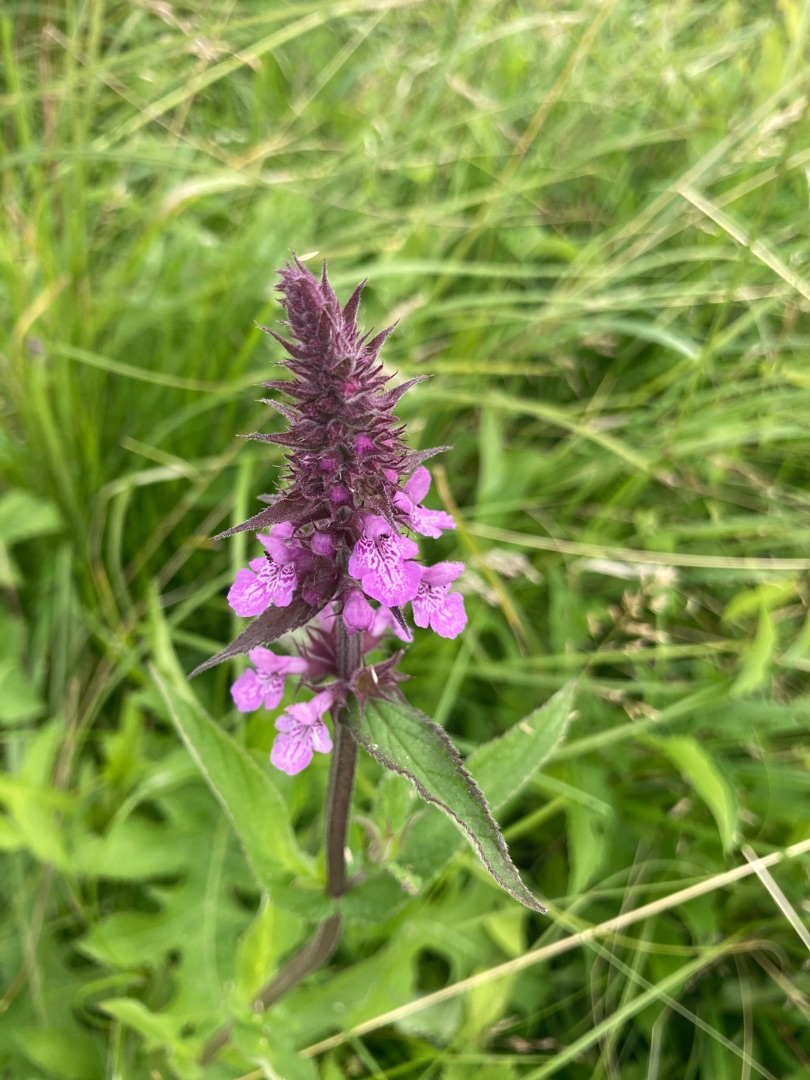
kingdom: Plantae
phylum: Tracheophyta
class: Magnoliopsida
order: Lamiales
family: Lamiaceae
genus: Stachys
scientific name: Stachys palustris
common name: Kær-galtetand
